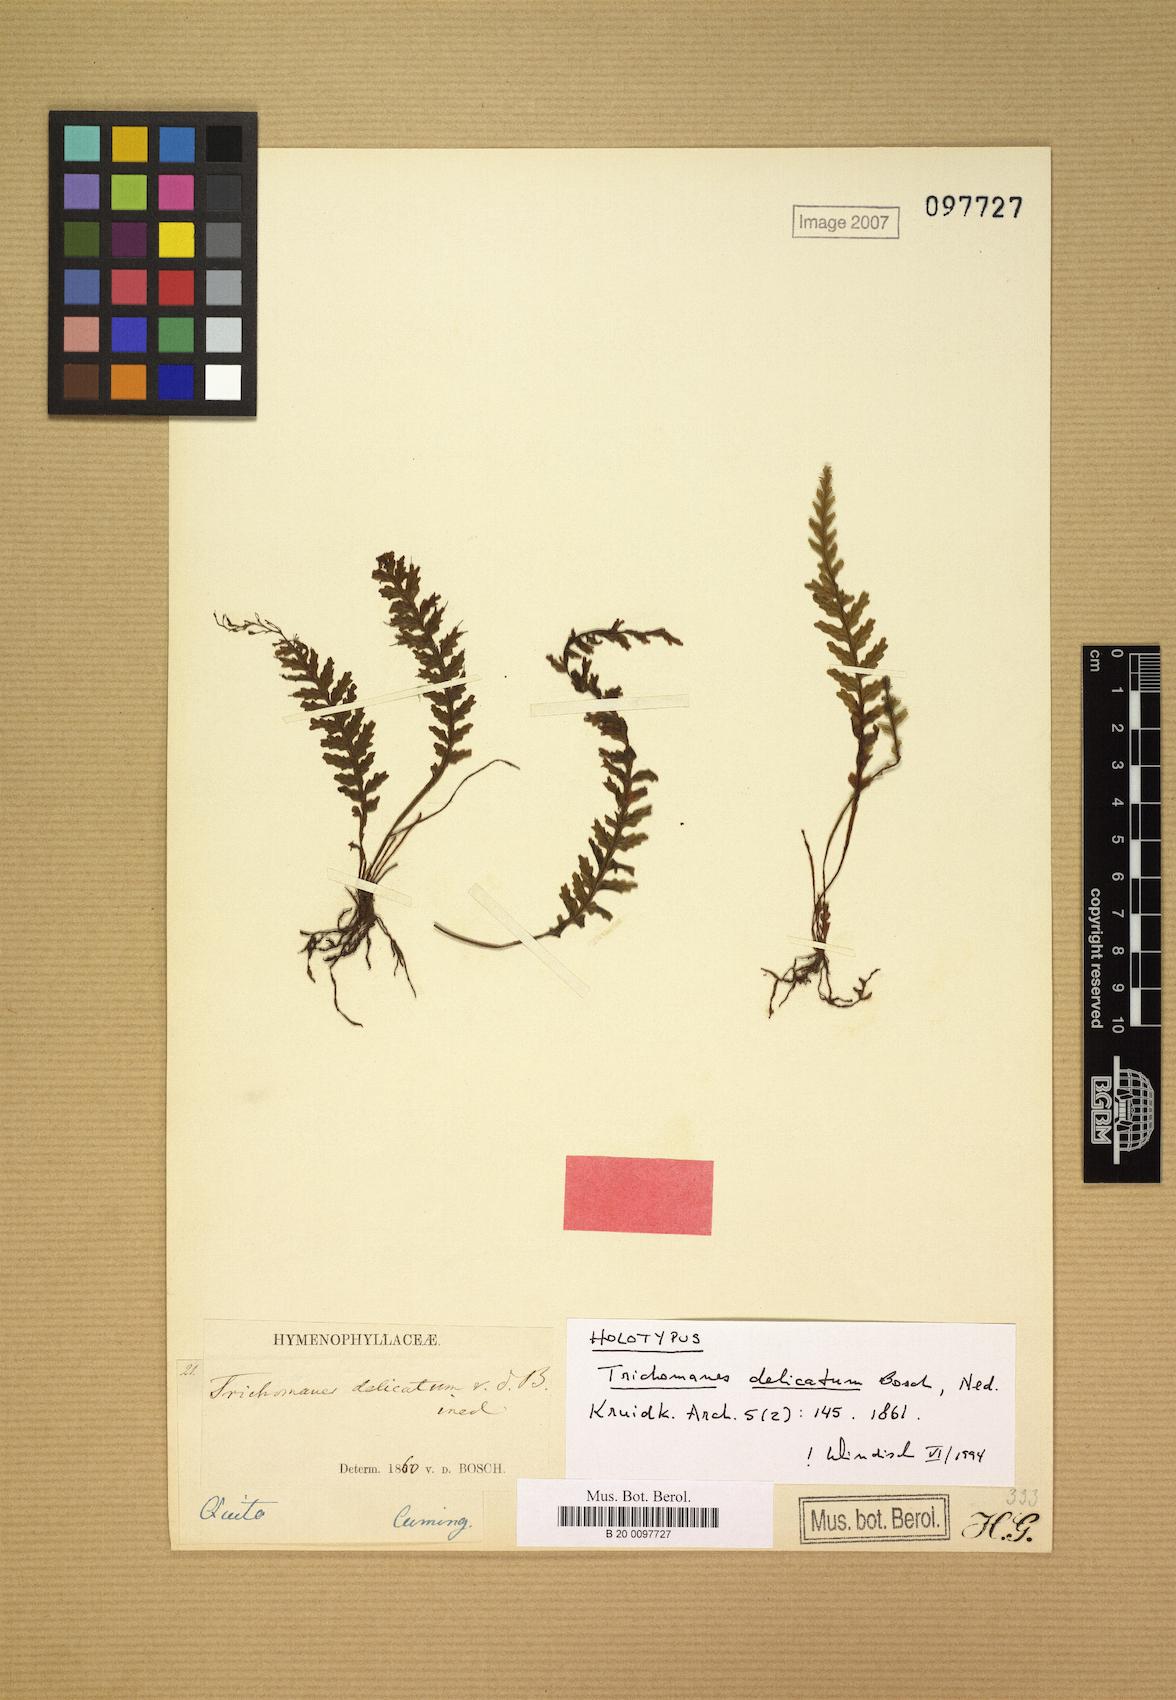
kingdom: Plantae
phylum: Tracheophyta
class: Polypodiopsida
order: Hymenophyllales
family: Hymenophyllaceae
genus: Trichomanes
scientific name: Trichomanes delicatum
